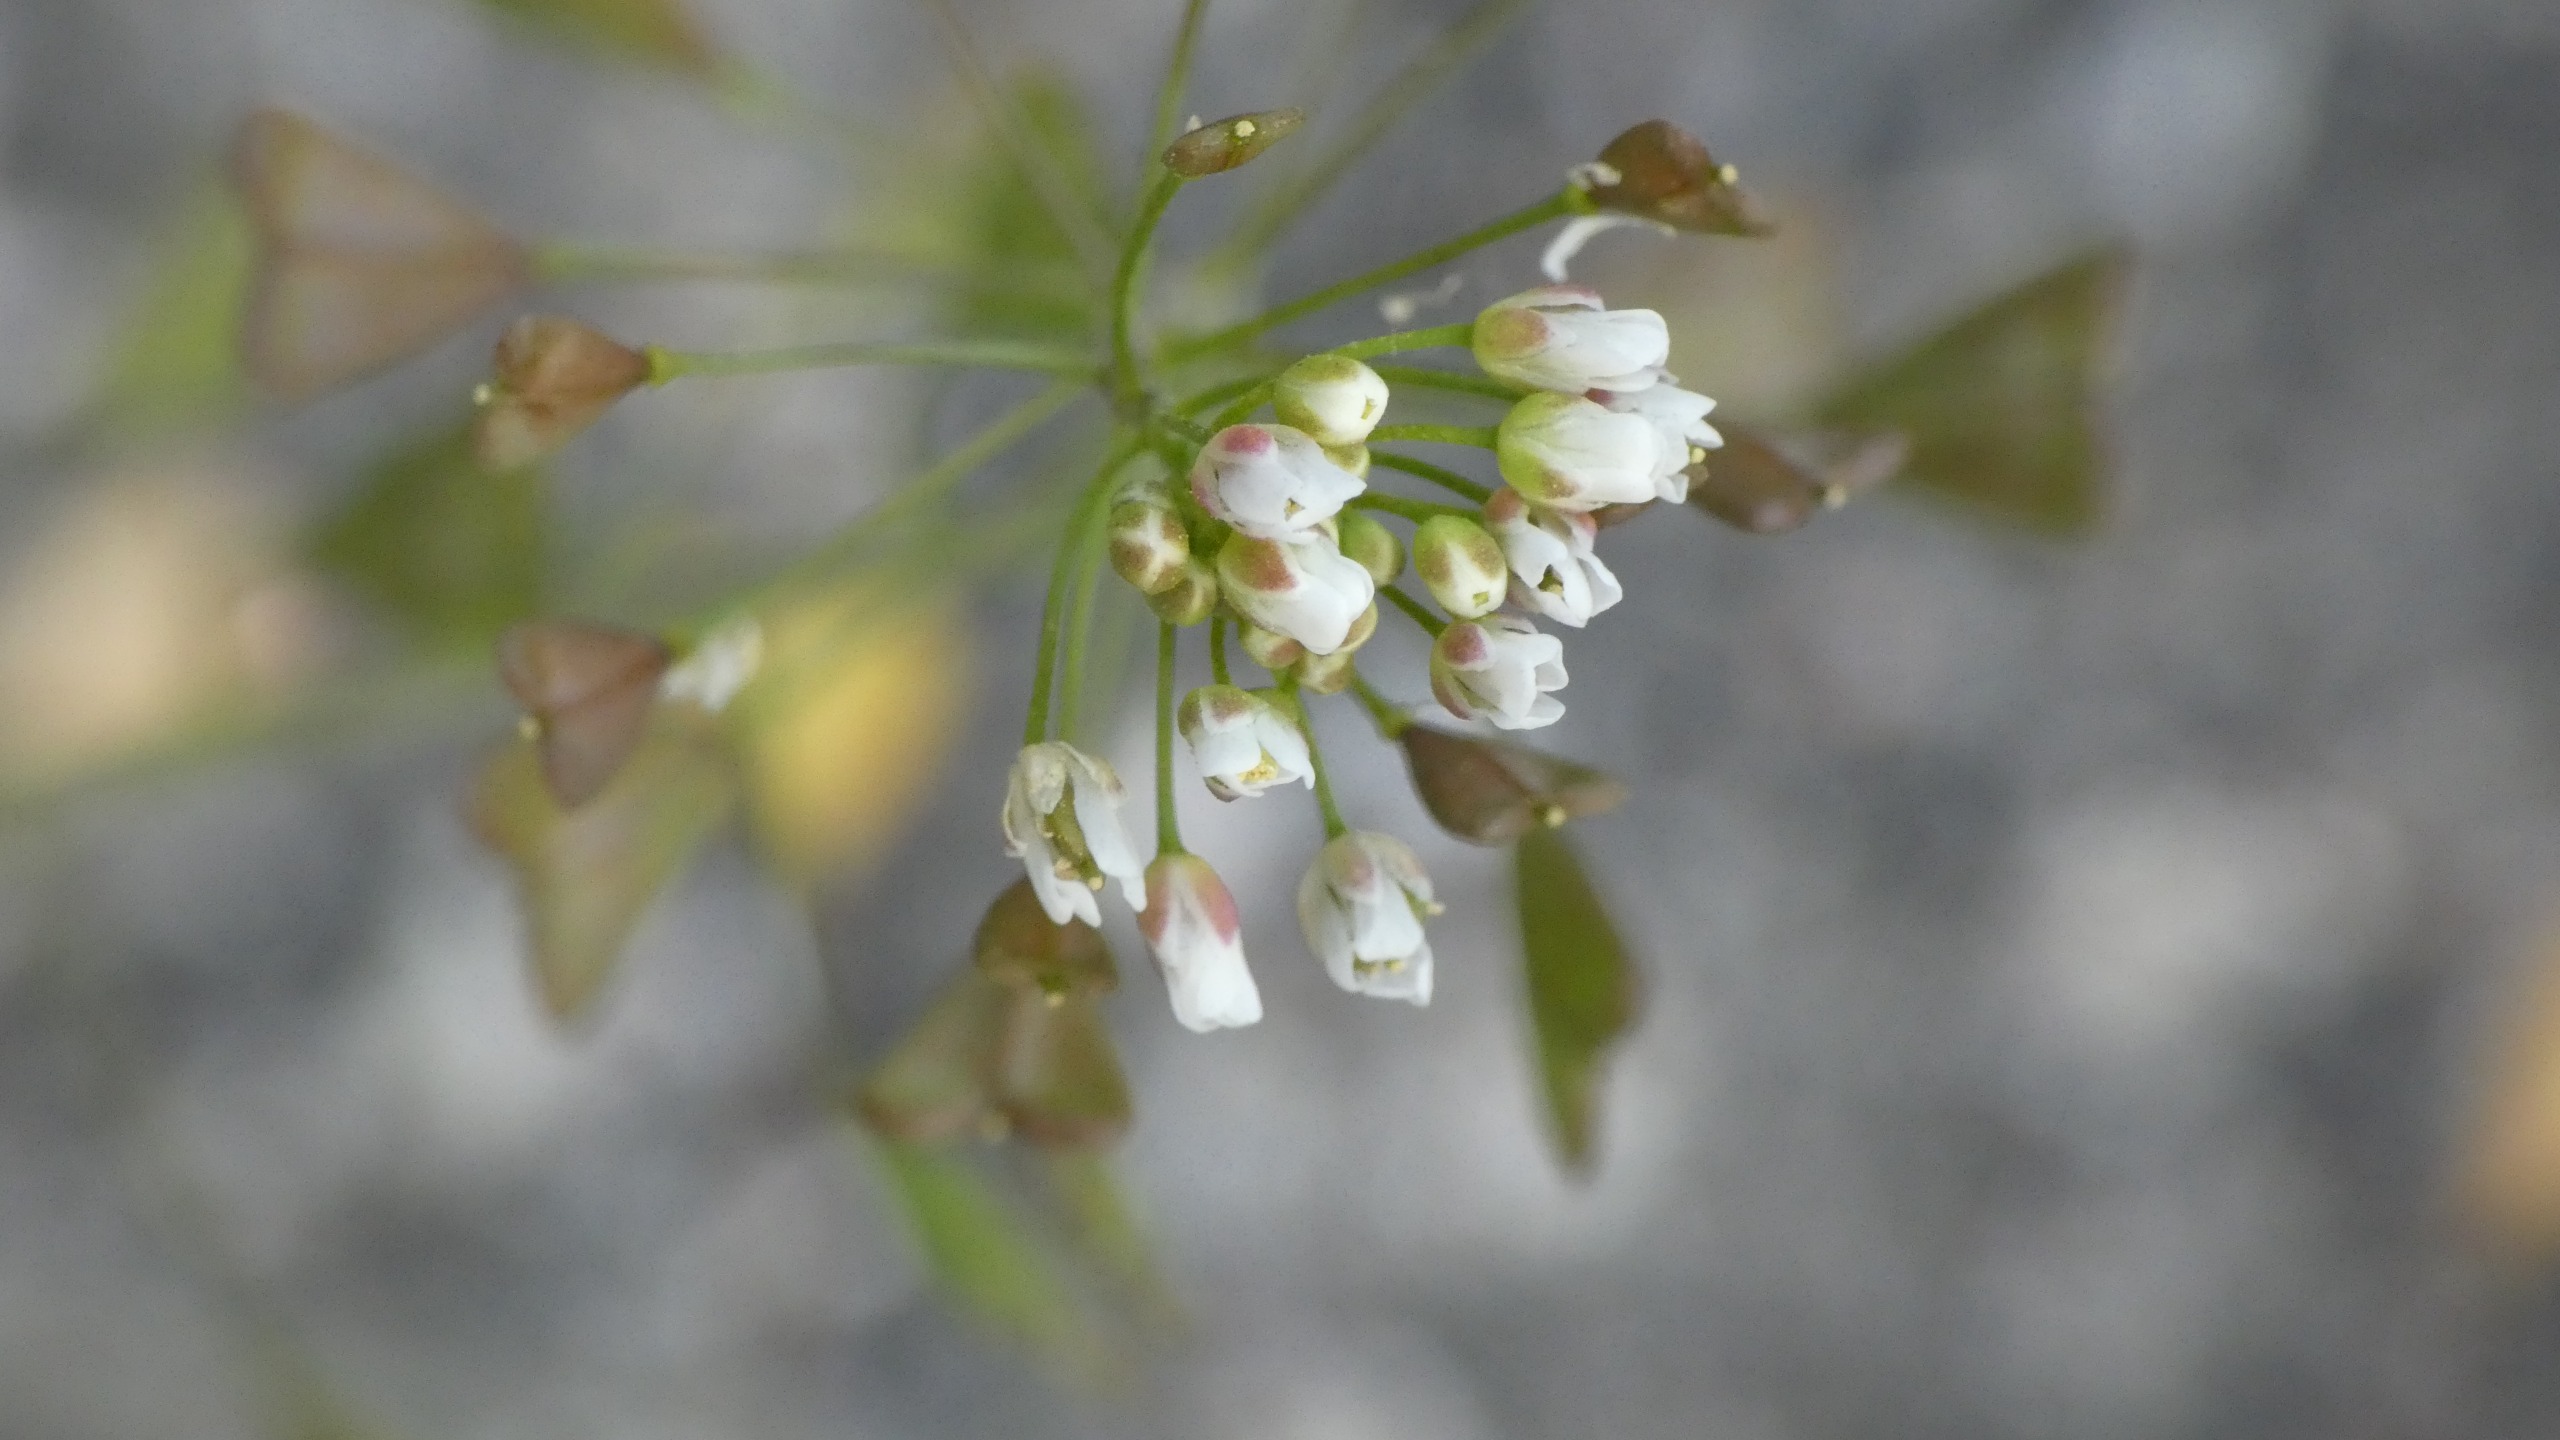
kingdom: Plantae
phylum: Tracheophyta
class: Magnoliopsida
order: Brassicales
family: Brassicaceae
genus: Capsella
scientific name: Capsella bursa-pastoris
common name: Hyrdetaske
